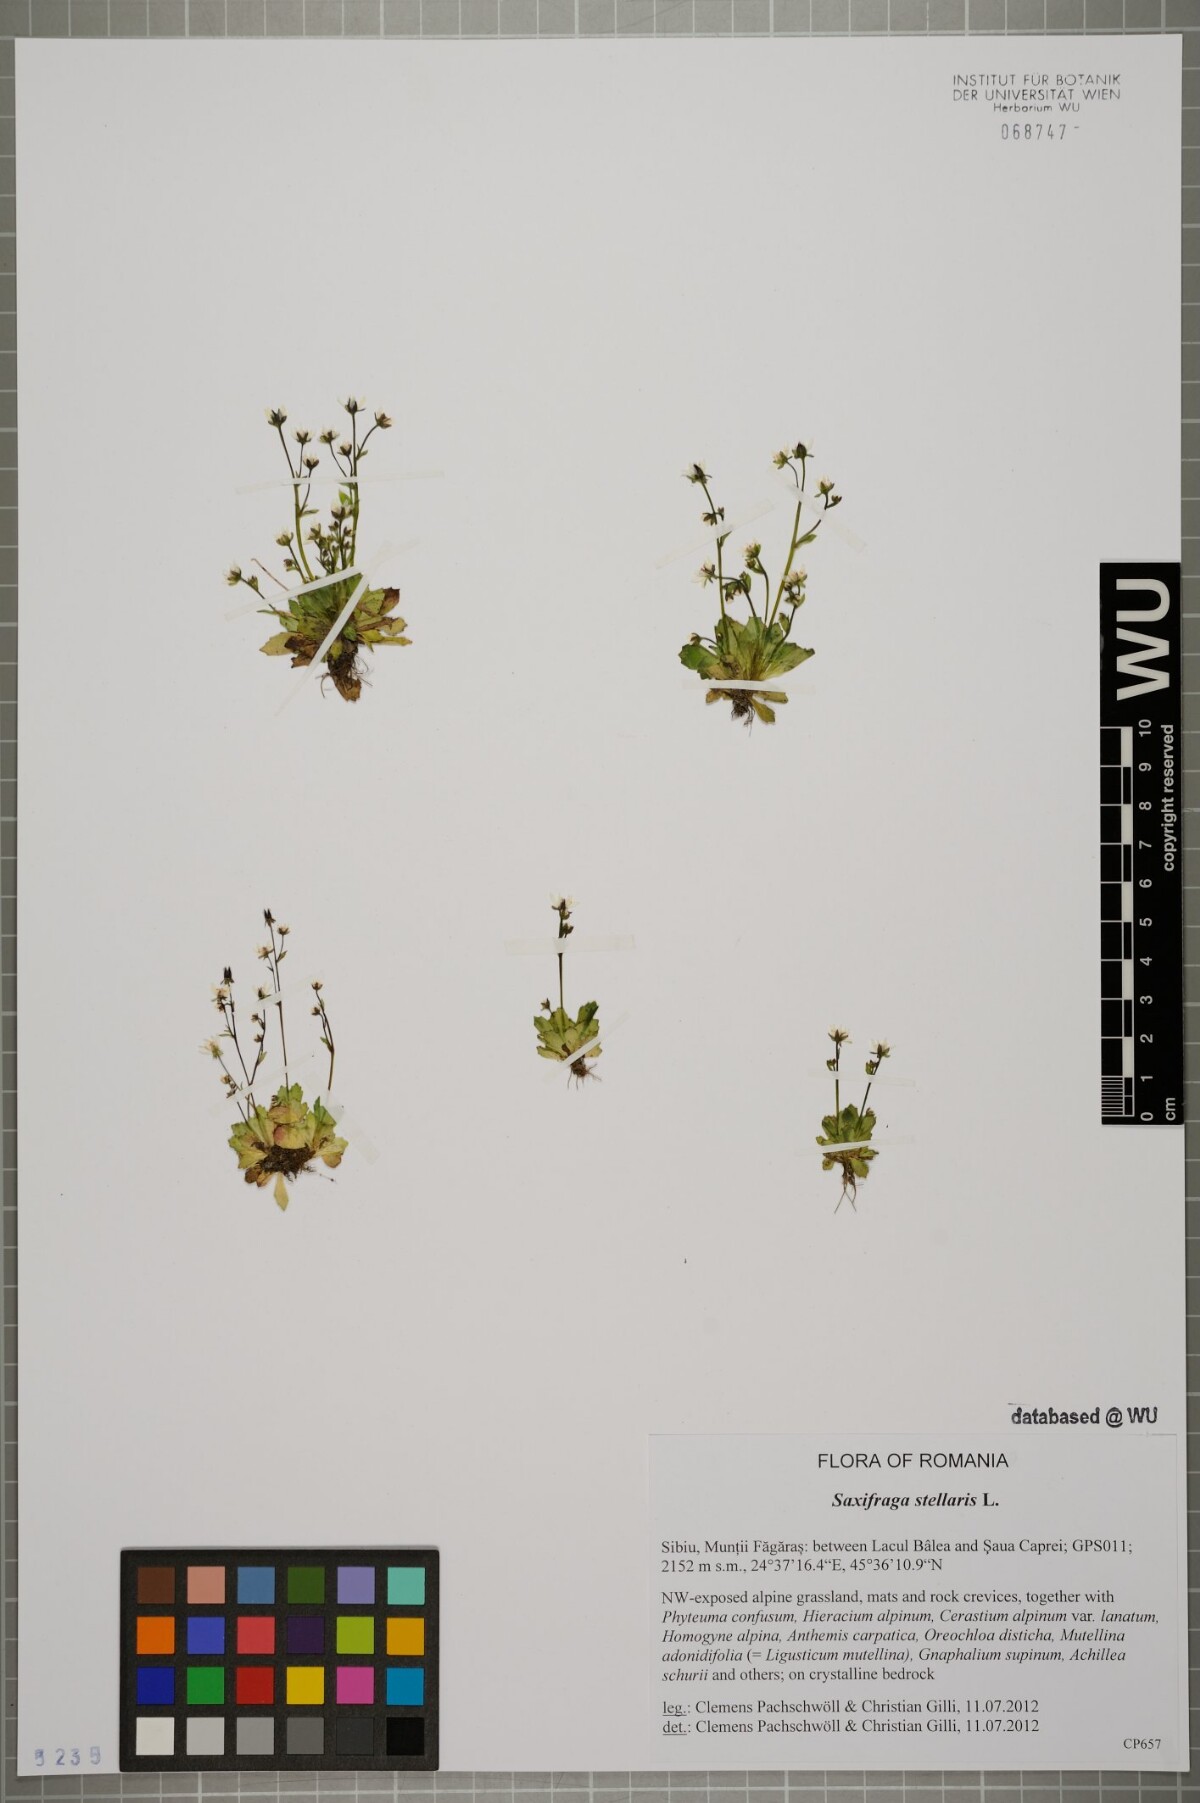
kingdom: Plantae
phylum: Tracheophyta
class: Magnoliopsida
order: Saxifragales
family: Saxifragaceae
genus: Micranthes
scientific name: Micranthes stellaris
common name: Starry saxifrage
